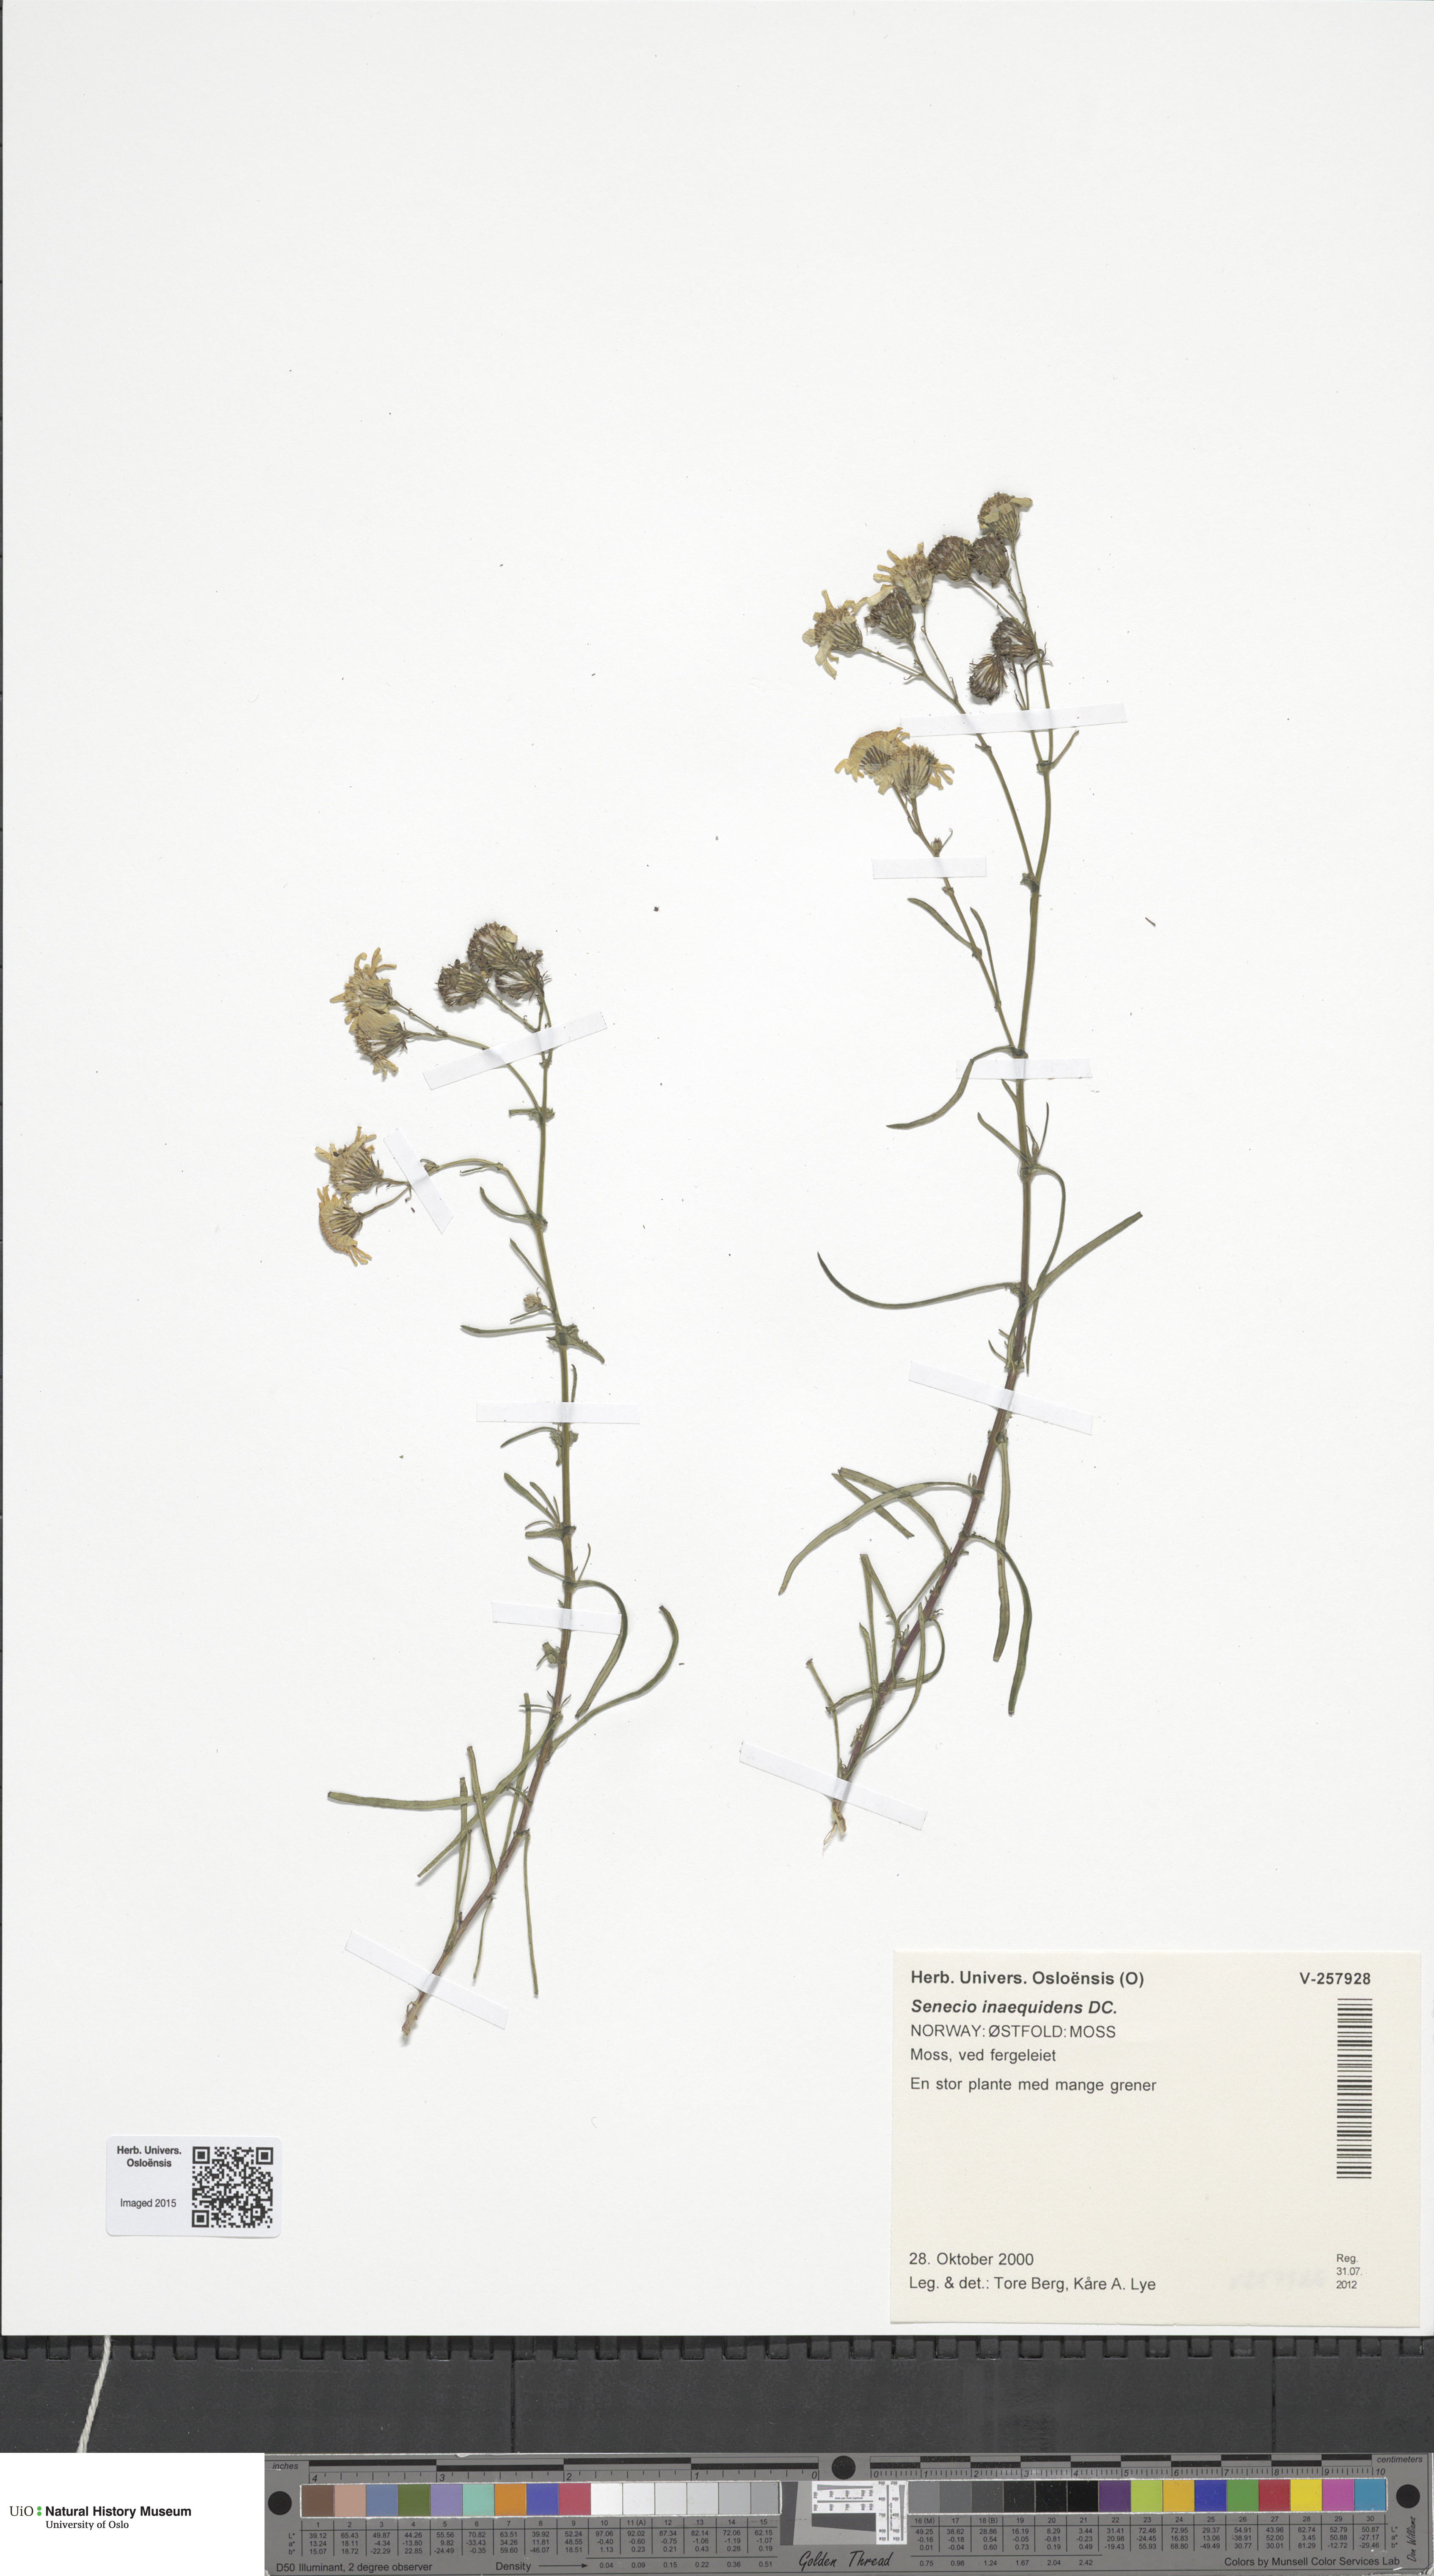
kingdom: Plantae
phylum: Tracheophyta
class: Magnoliopsida
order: Asterales
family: Asteraceae
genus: Senecio
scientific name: Senecio inaequidens
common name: Narrow-leaved ragwort
